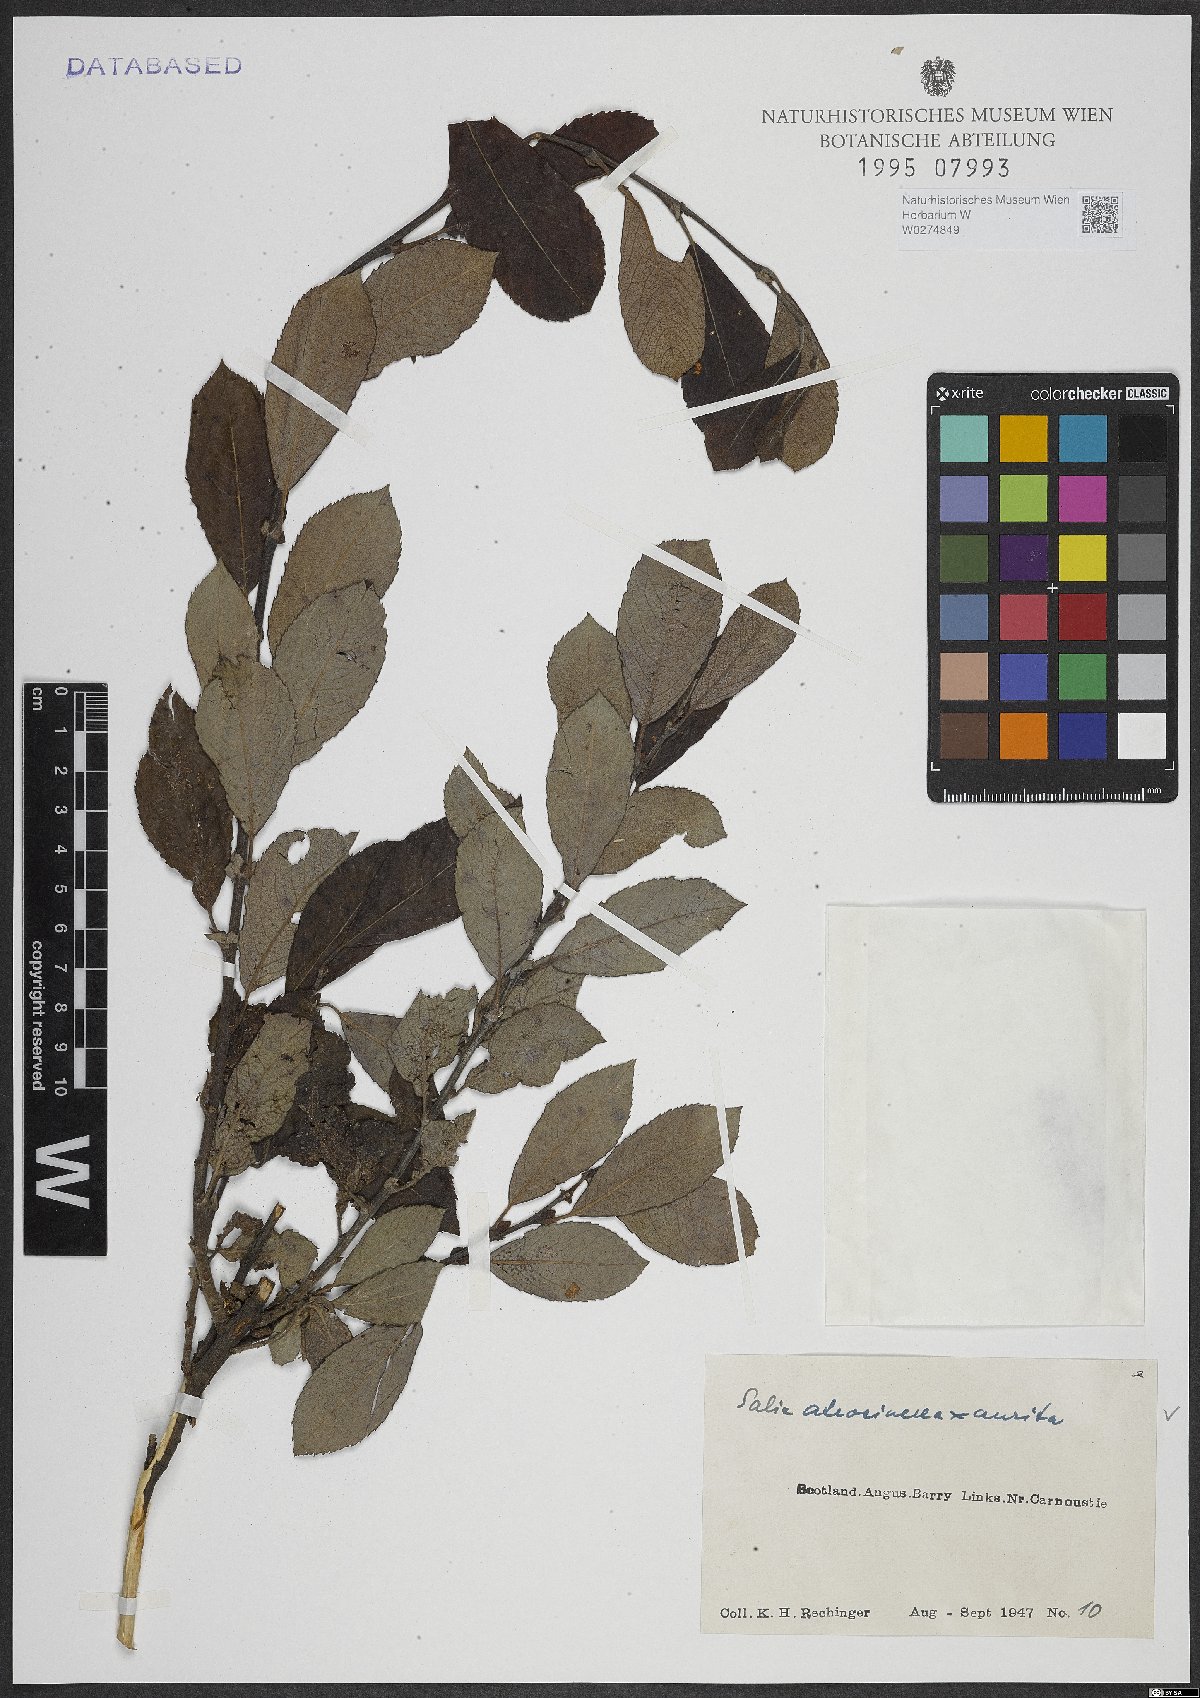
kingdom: Plantae
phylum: Tracheophyta
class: Magnoliopsida
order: Malpighiales
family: Salicaceae
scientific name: Salicaceae
